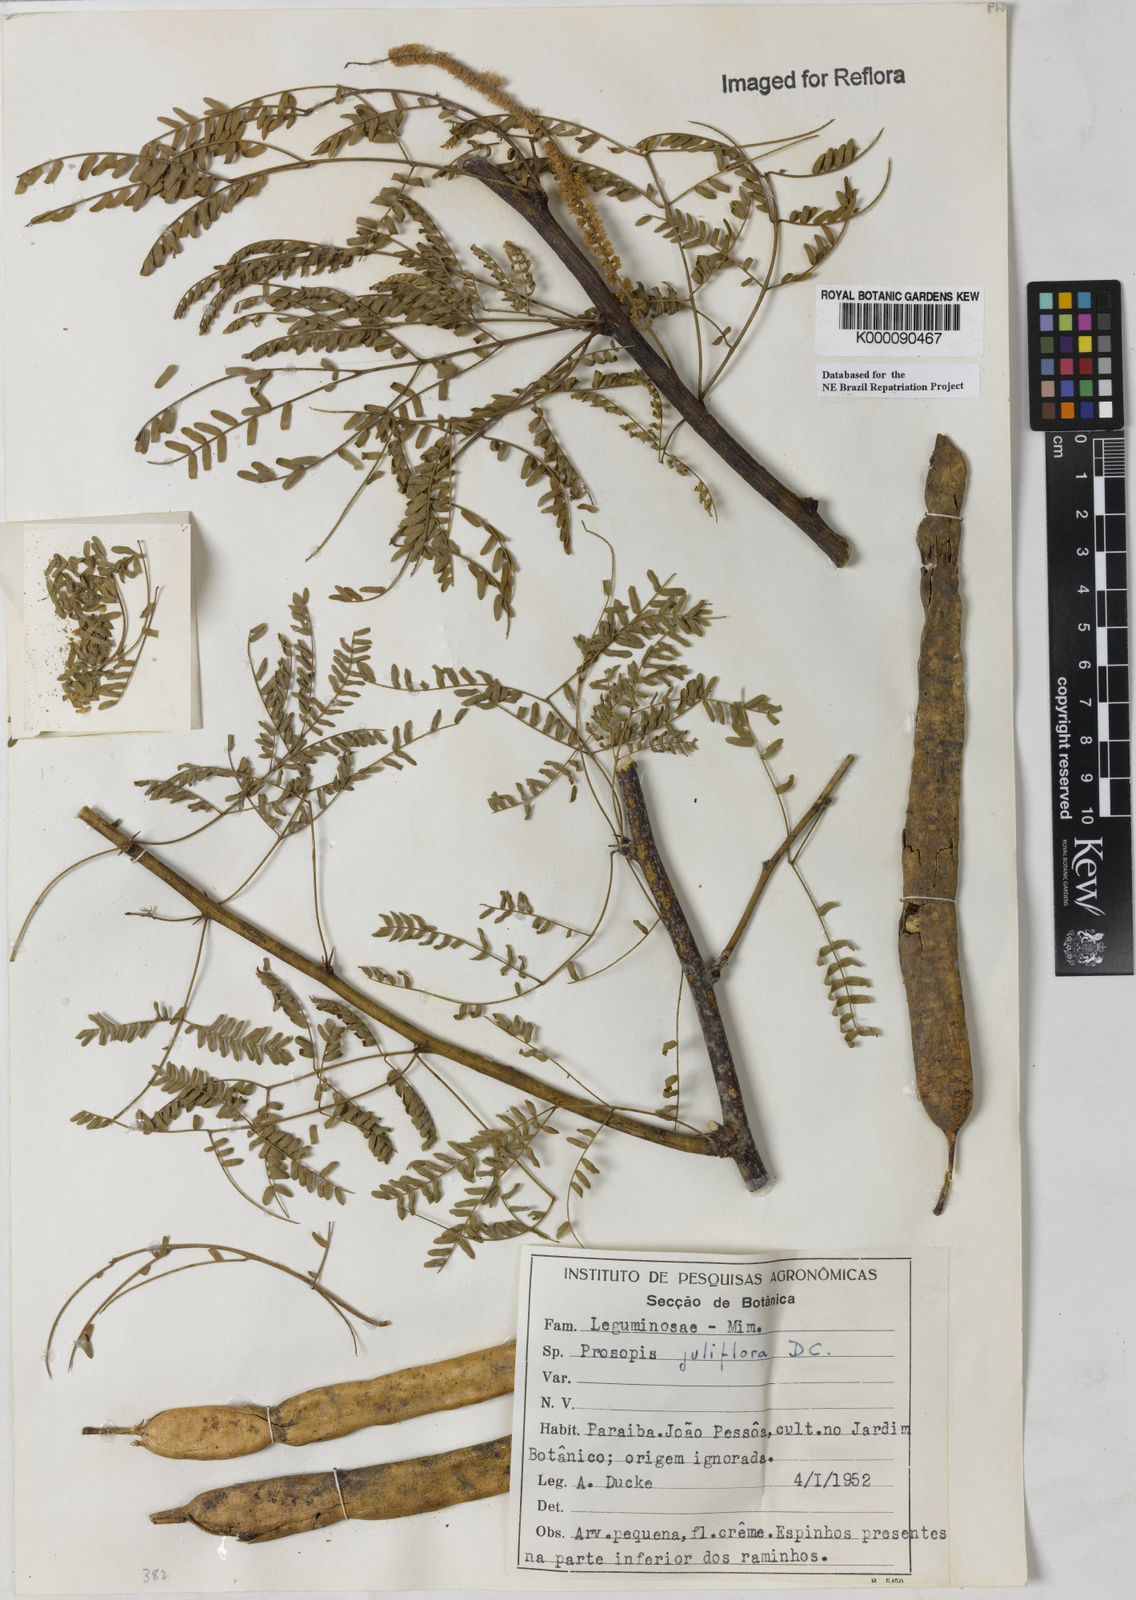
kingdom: Plantae
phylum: Tracheophyta
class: Magnoliopsida
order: Fabales
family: Fabaceae
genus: Prosopis
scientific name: Prosopis juliflora
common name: Mesquite
